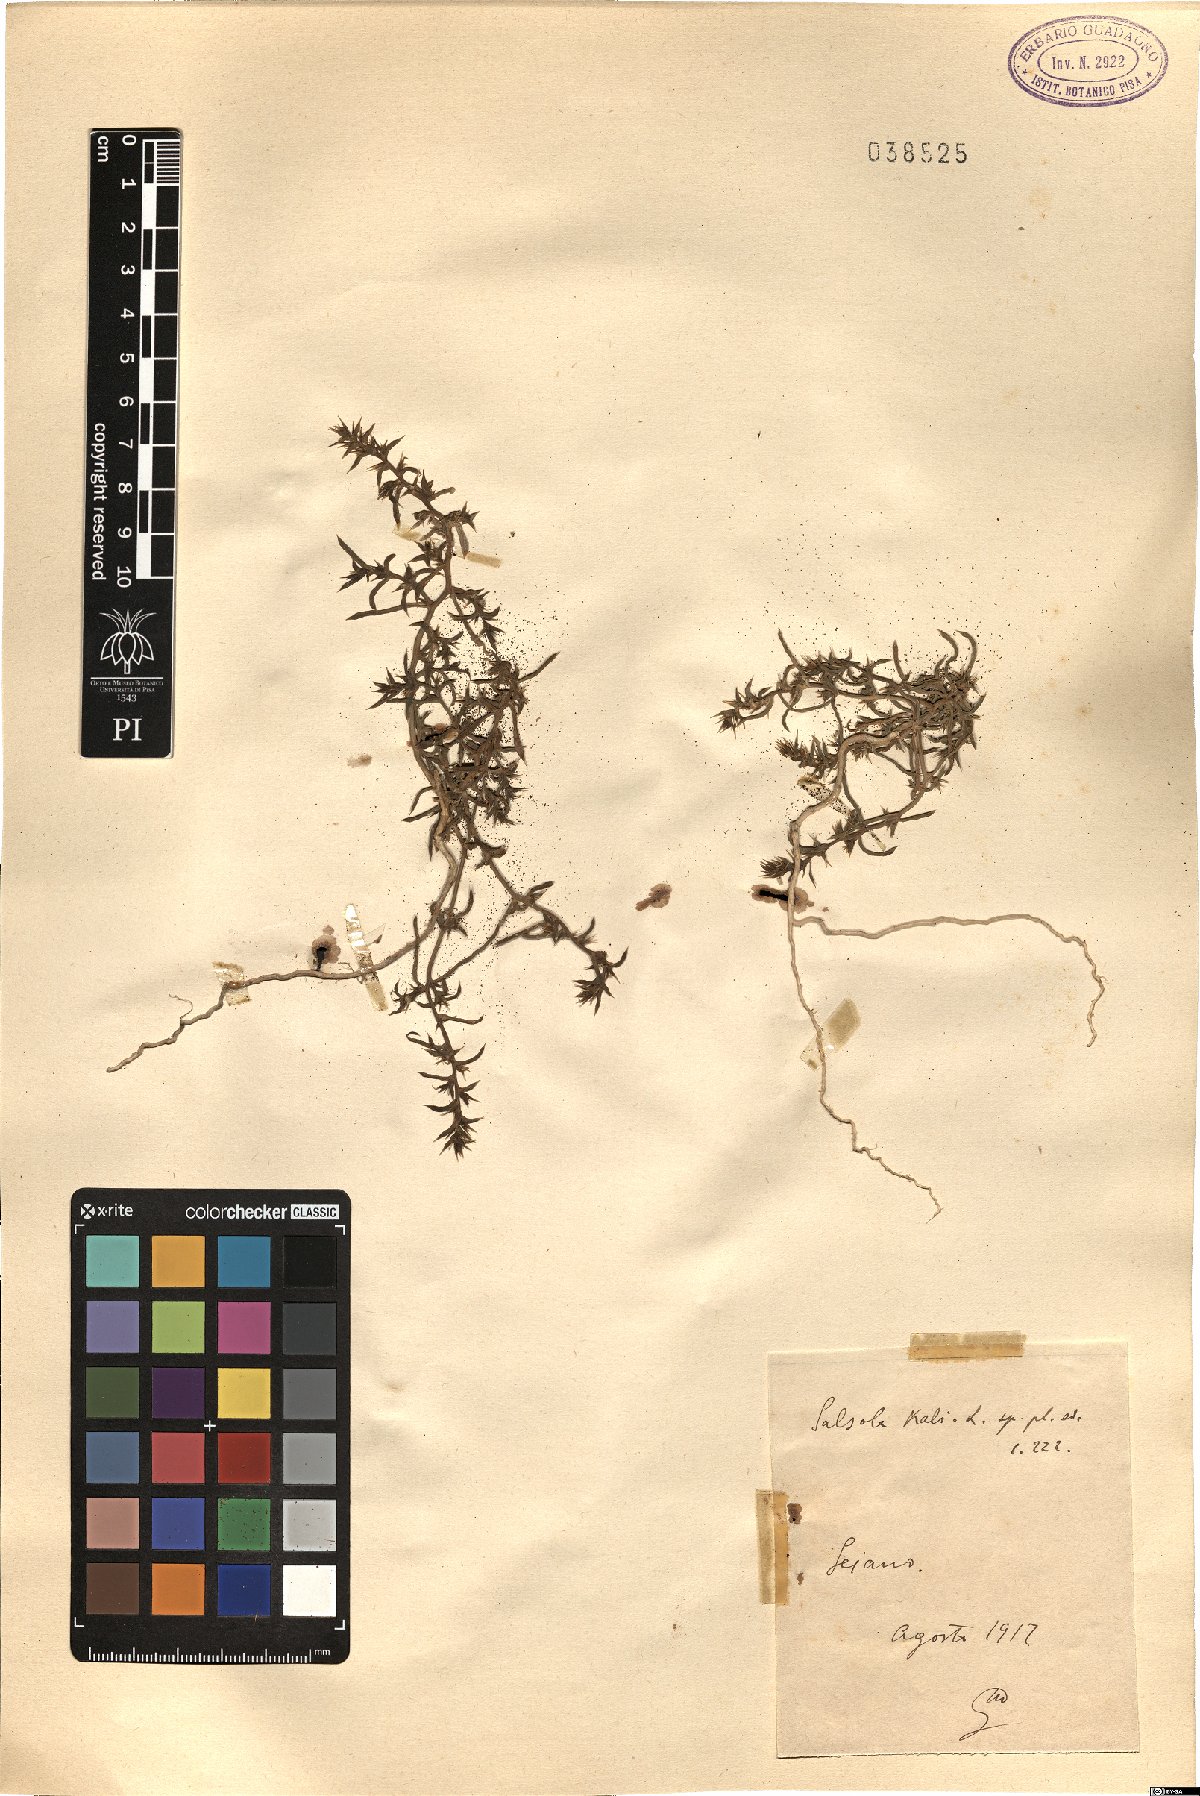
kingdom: Plantae
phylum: Tracheophyta
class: Magnoliopsida
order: Caryophyllales
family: Amaranthaceae
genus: Salsola
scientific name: Salsola kali
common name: Saltwort
